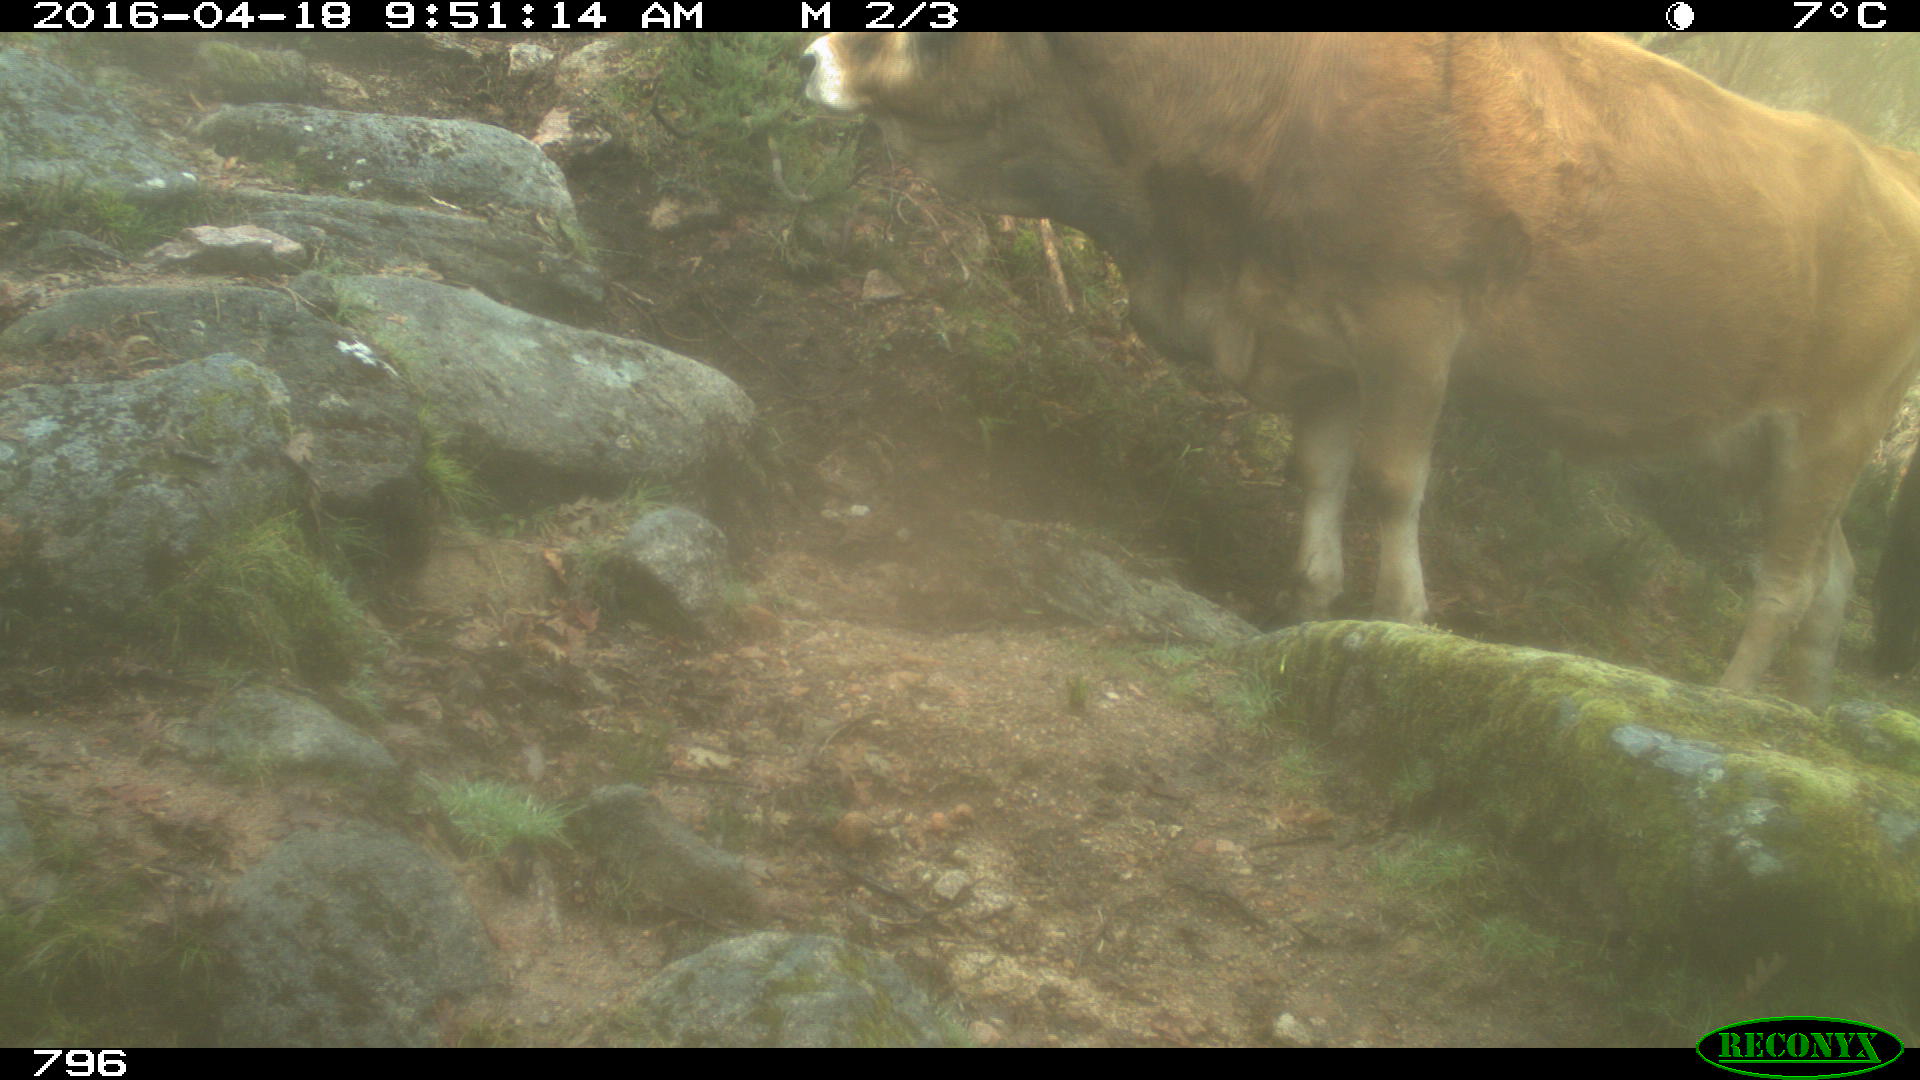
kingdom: Animalia
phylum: Chordata
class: Mammalia
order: Artiodactyla
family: Bovidae
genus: Bos
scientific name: Bos taurus
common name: Domesticated cattle
